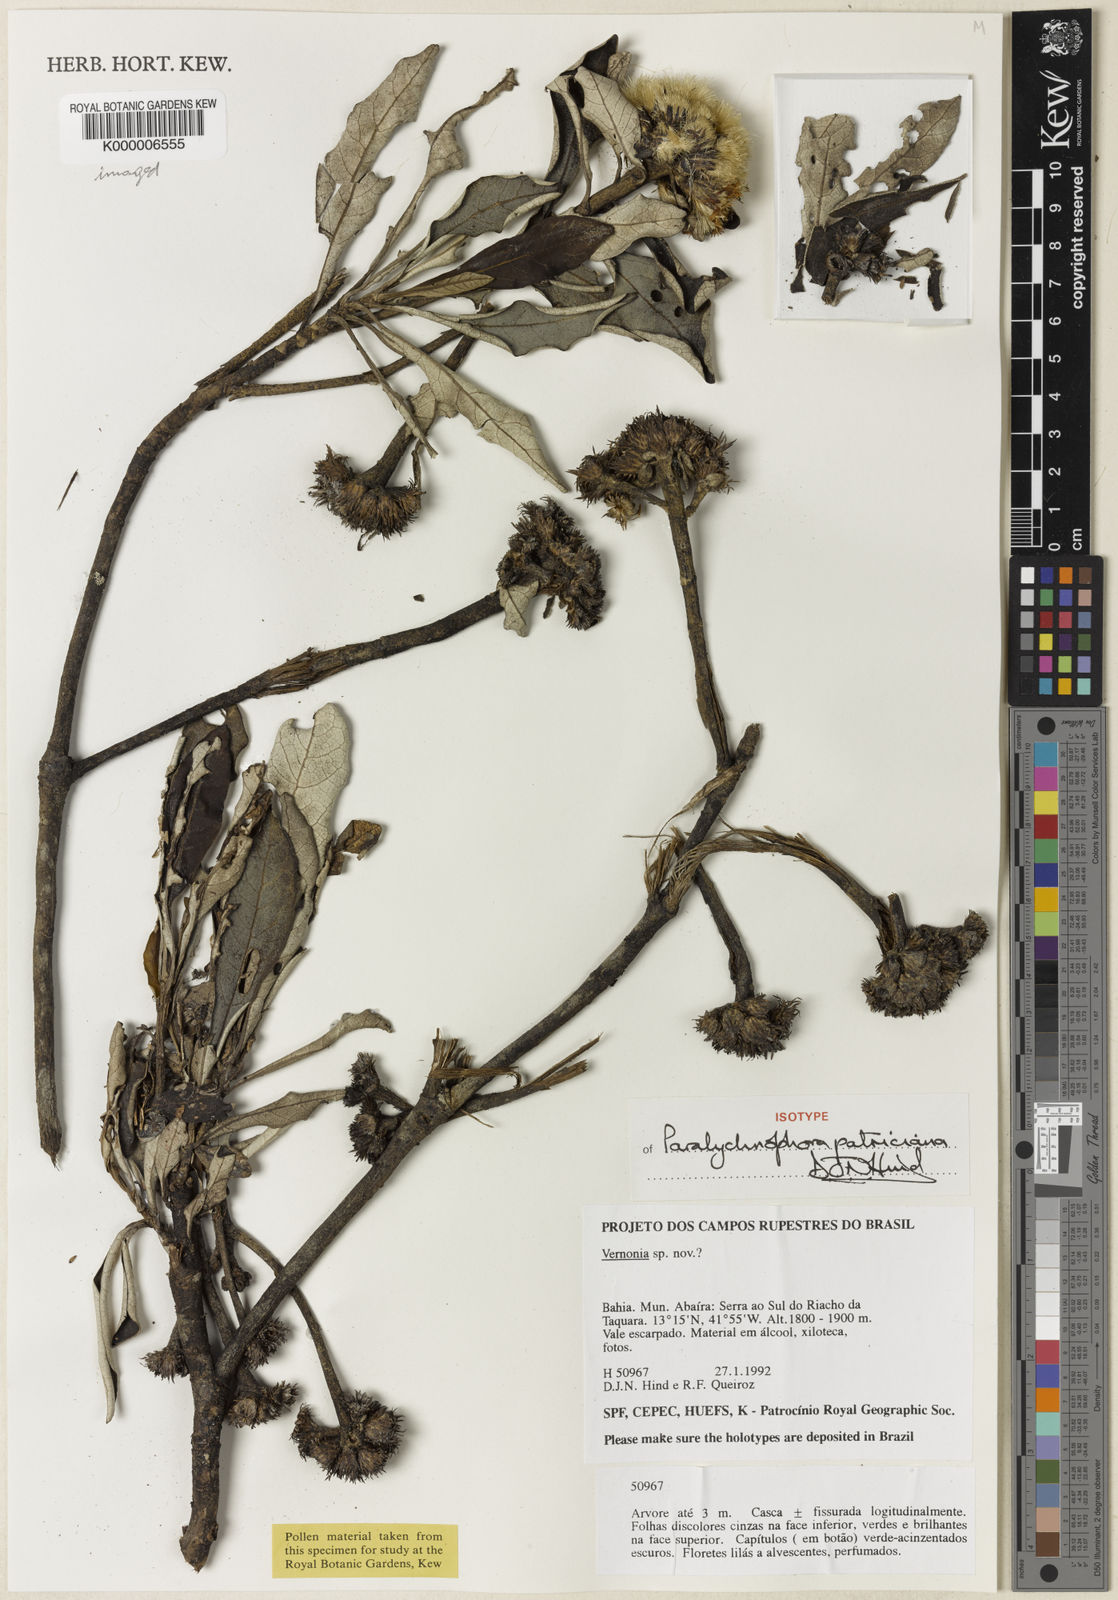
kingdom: Plantae
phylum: Tracheophyta
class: Magnoliopsida
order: Asterales
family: Asteraceae
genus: Paralychnophora
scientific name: Paralychnophora patriciana
